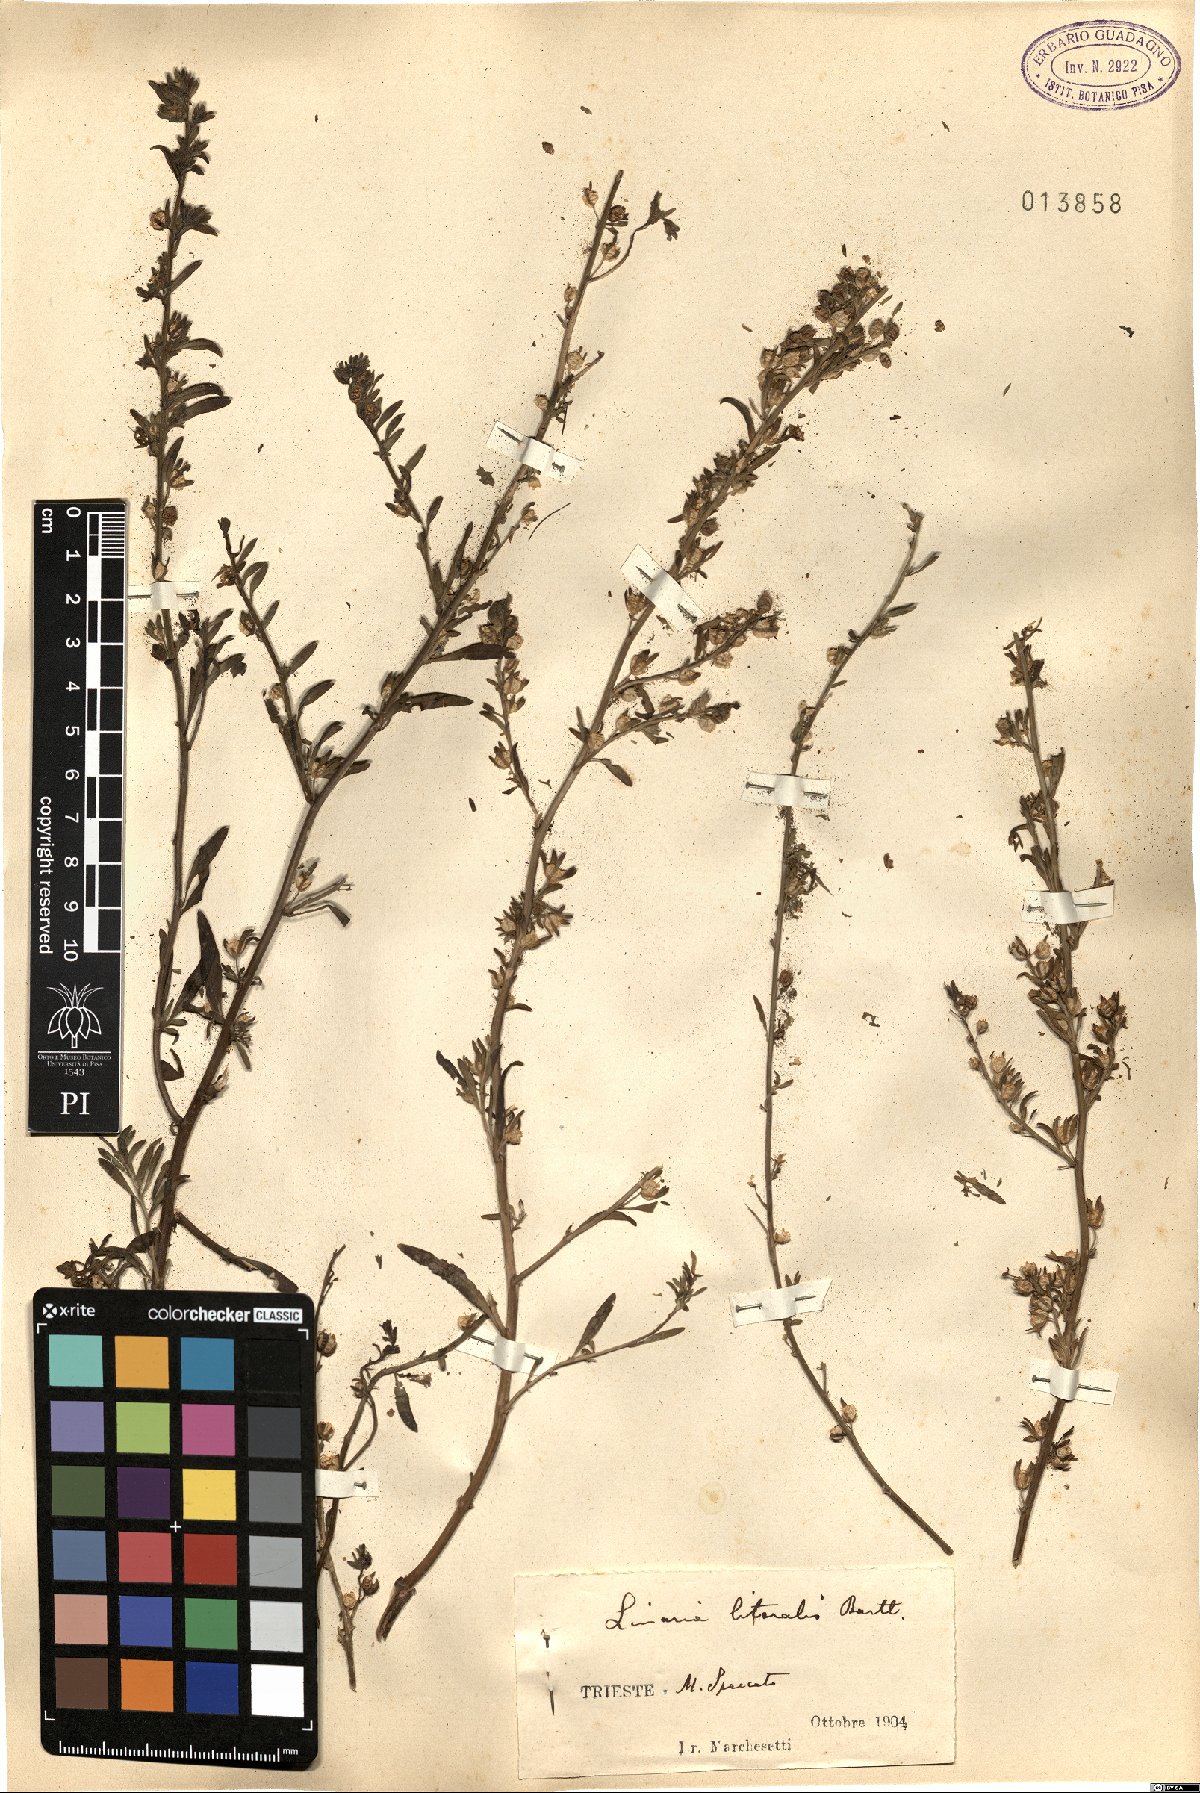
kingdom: Plantae
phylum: Tracheophyta
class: Magnoliopsida
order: Lamiales
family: Plantaginaceae
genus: Chaenorhinum
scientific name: Chaenorhinum litorale
